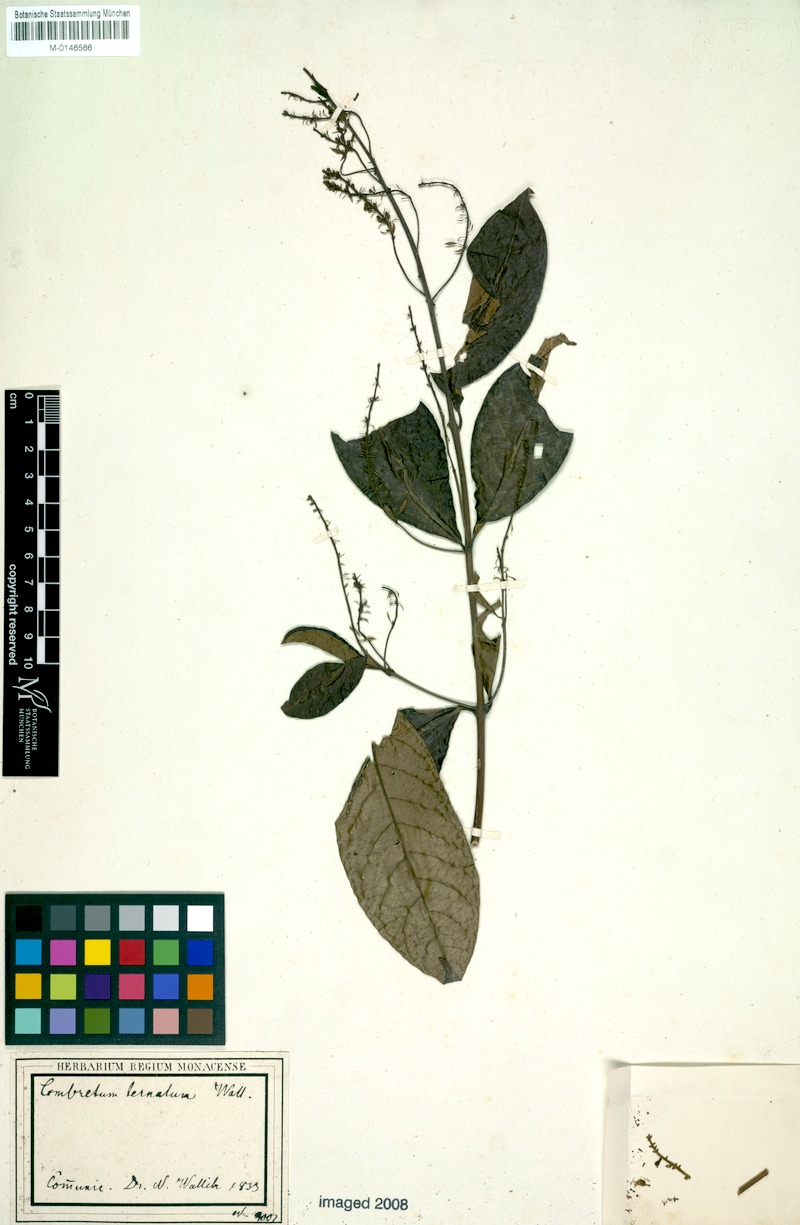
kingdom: Plantae
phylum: Tracheophyta
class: Magnoliopsida
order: Myrtales
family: Combretaceae
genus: Combretum
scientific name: Combretum griffithii
